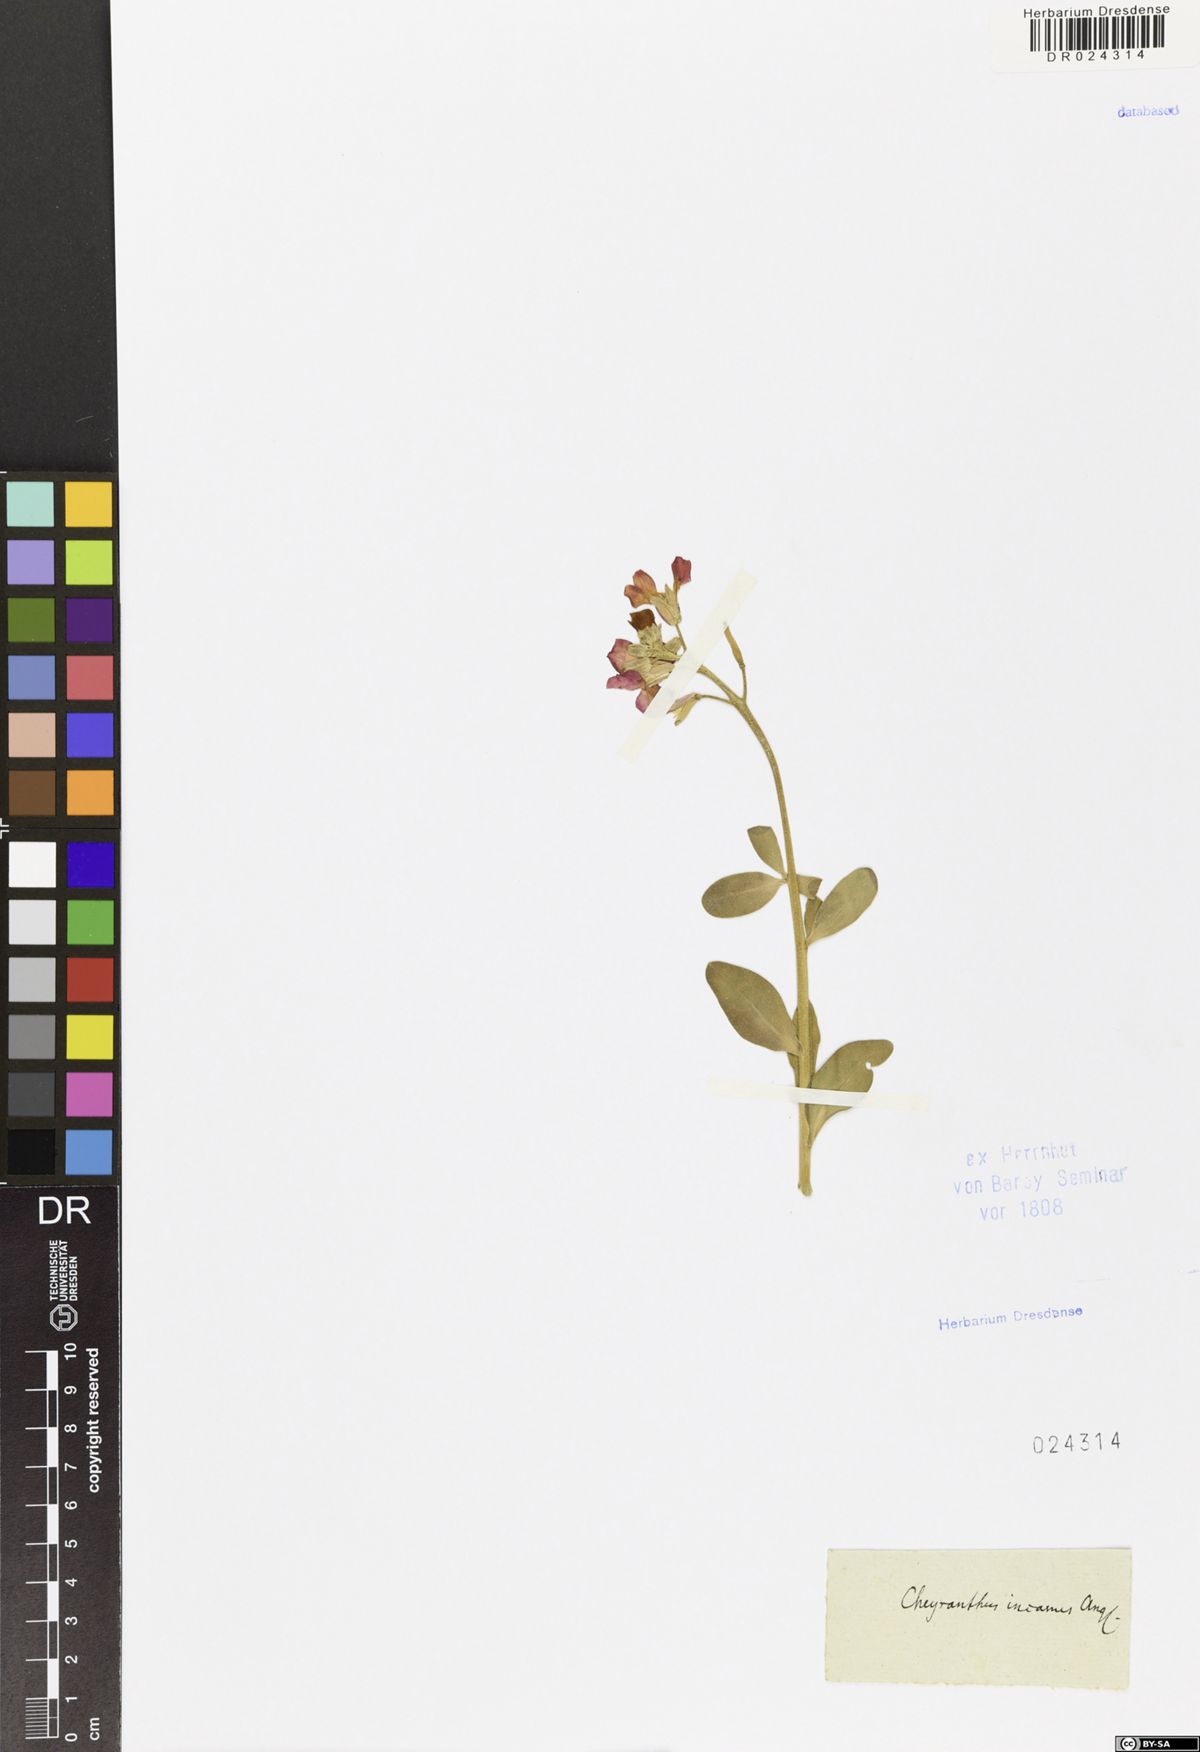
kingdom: Plantae
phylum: Tracheophyta
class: Magnoliopsida
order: Brassicales
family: Brassicaceae
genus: Matthiola
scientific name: Matthiola incana
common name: Hoary stock
